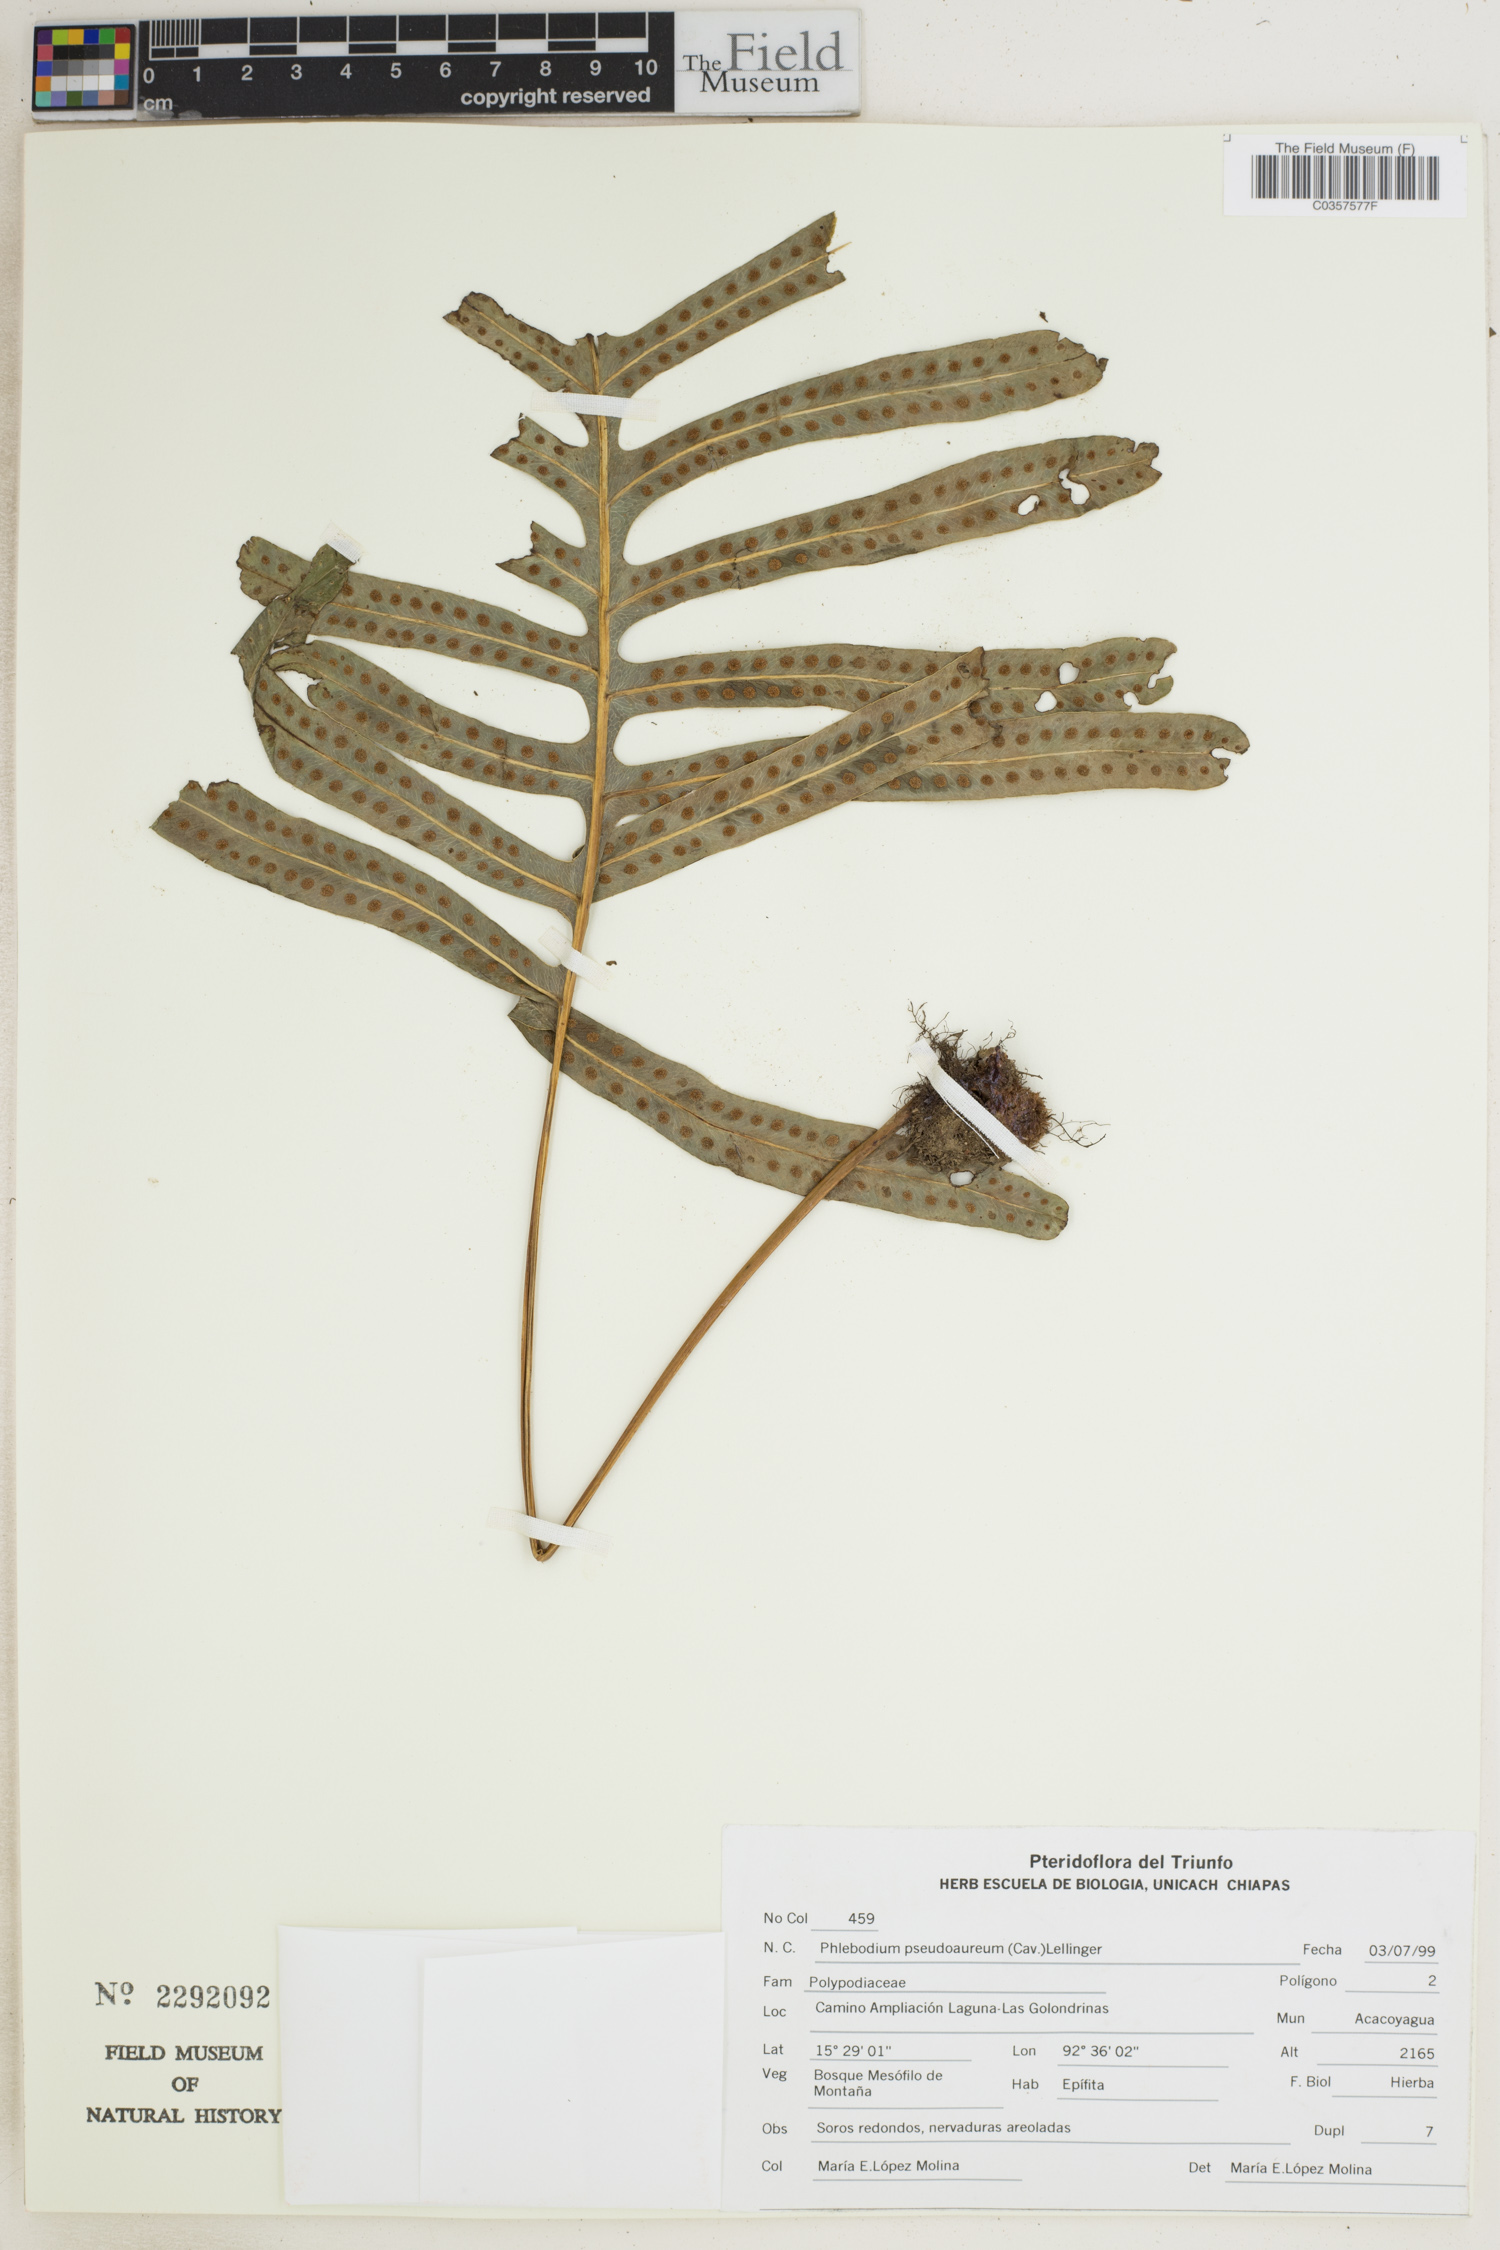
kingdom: Plantae
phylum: Tracheophyta
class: Polypodiopsida
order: Polypodiales
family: Polypodiaceae
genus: Phlebodium
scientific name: Phlebodium pseudoaureum
